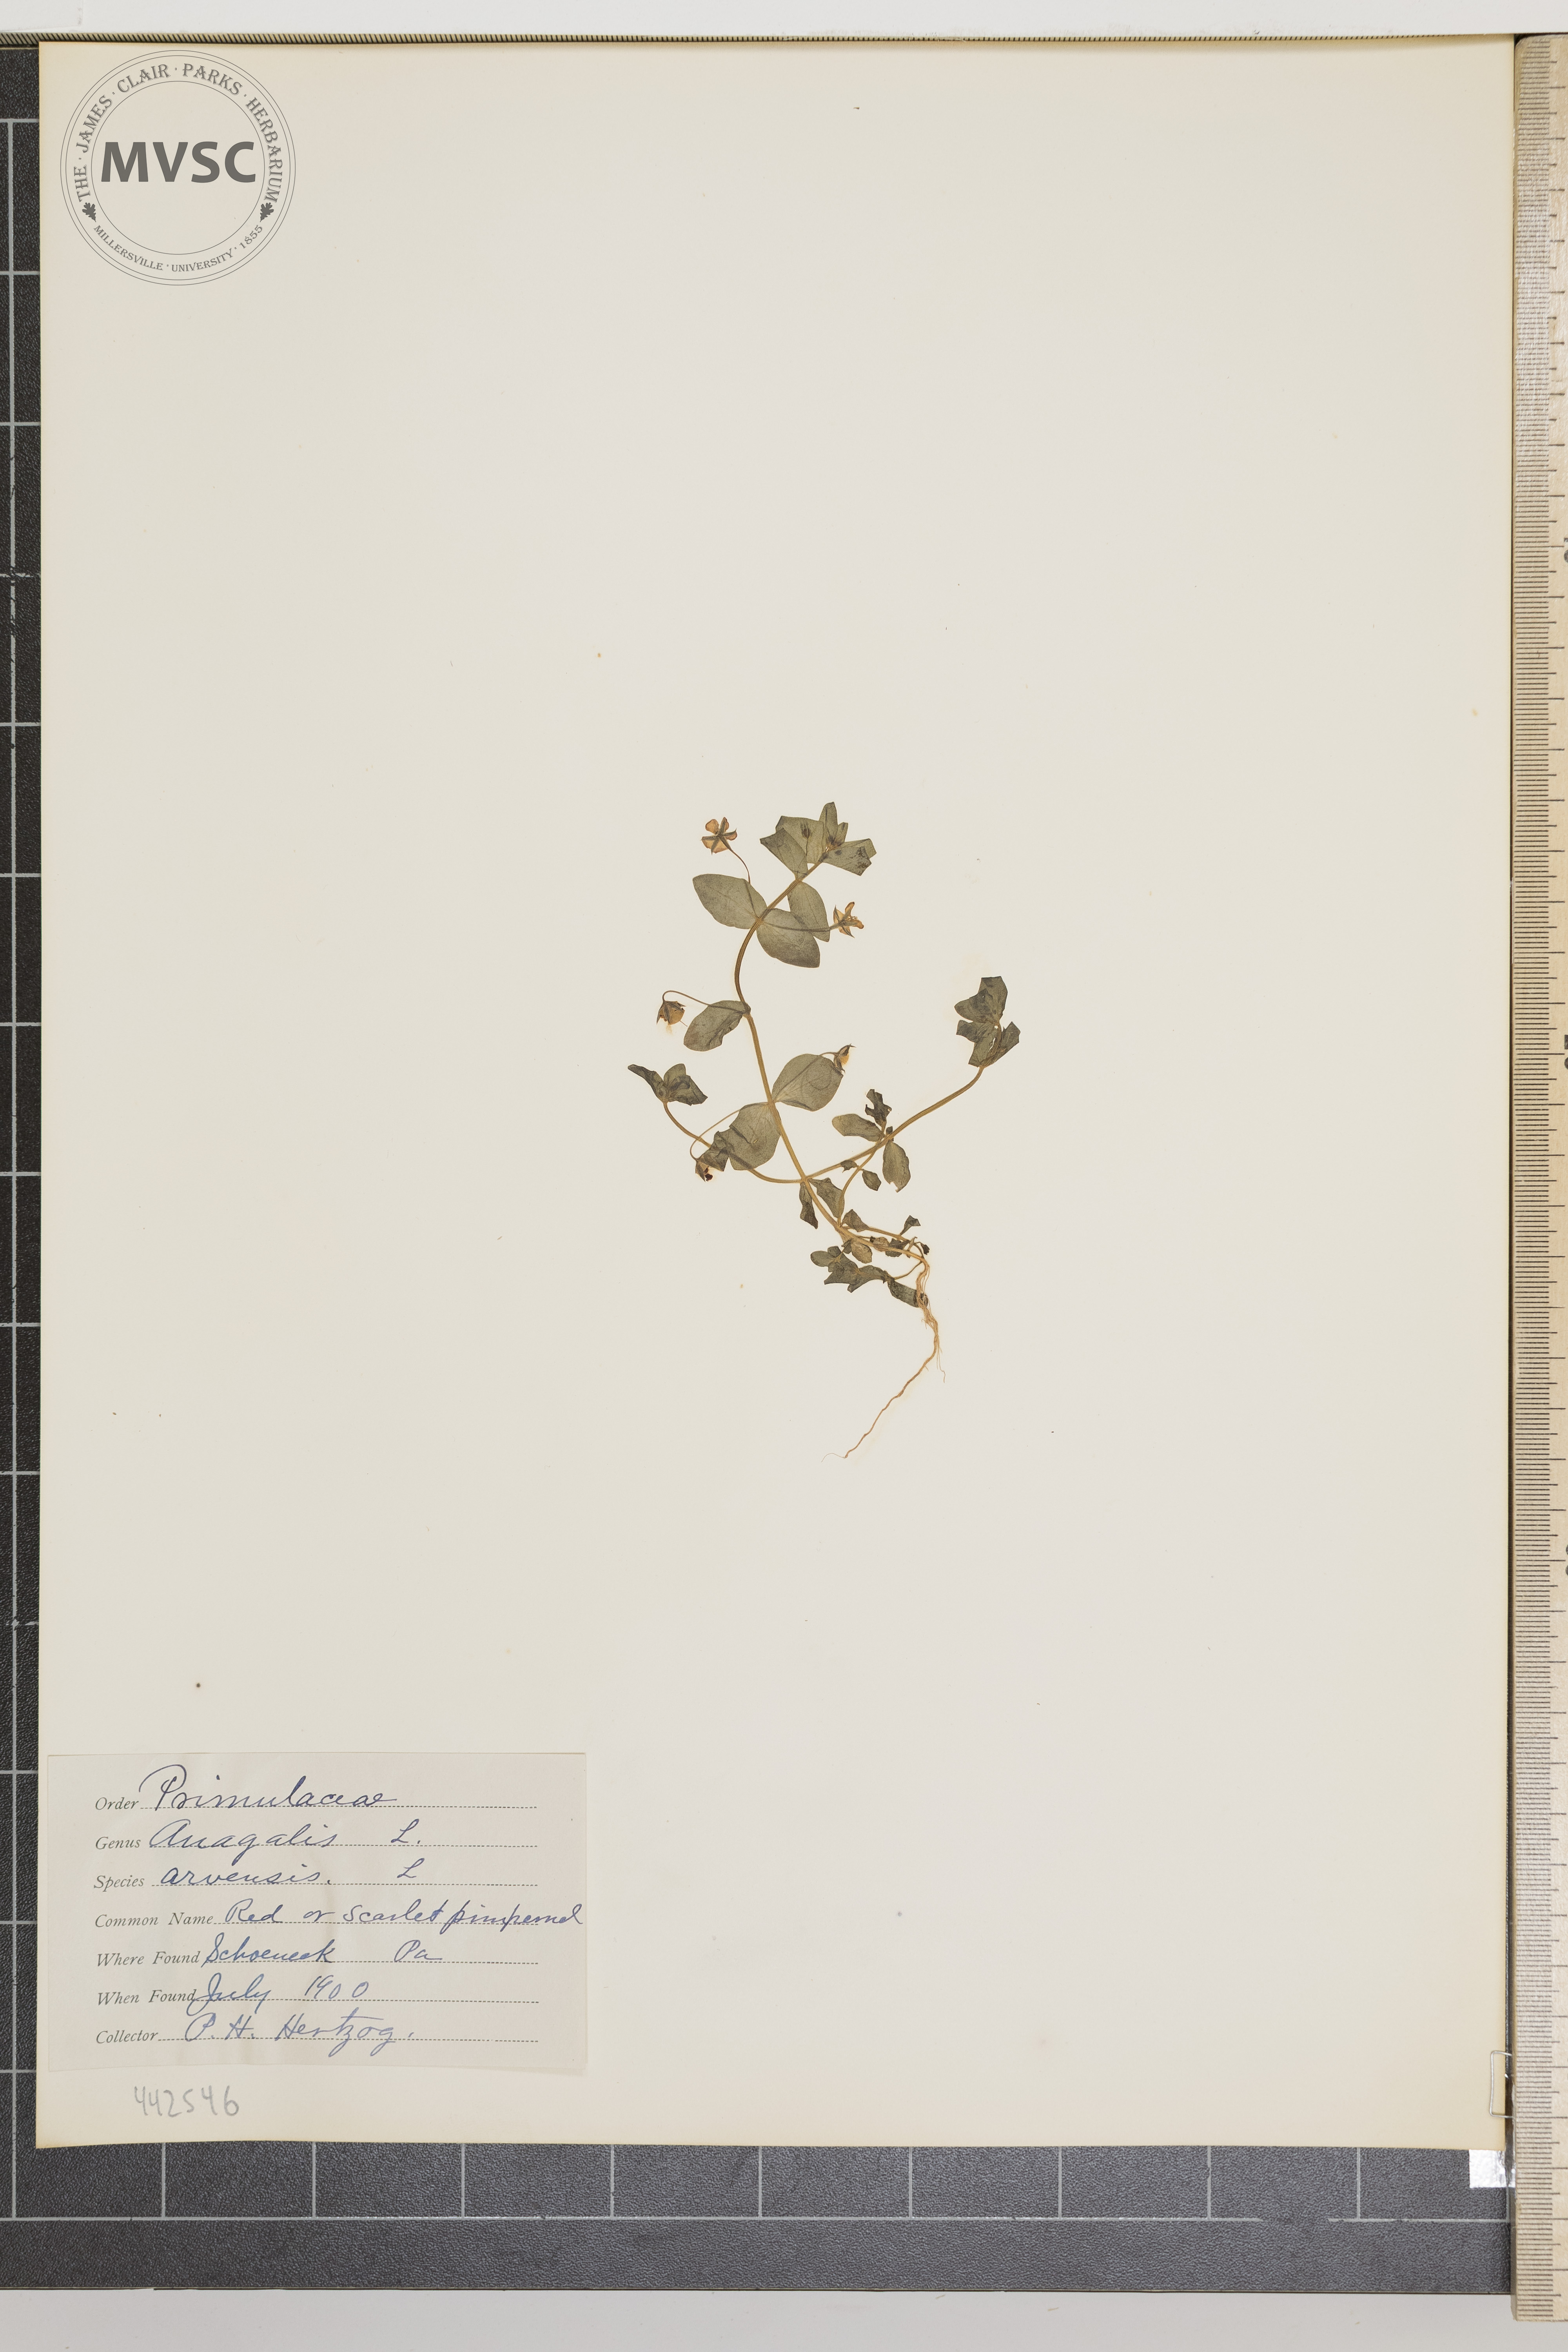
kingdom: Plantae
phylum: Tracheophyta
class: Magnoliopsida
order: Ericales
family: Primulaceae
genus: Lysimachia
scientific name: Lysimachia arvensis
